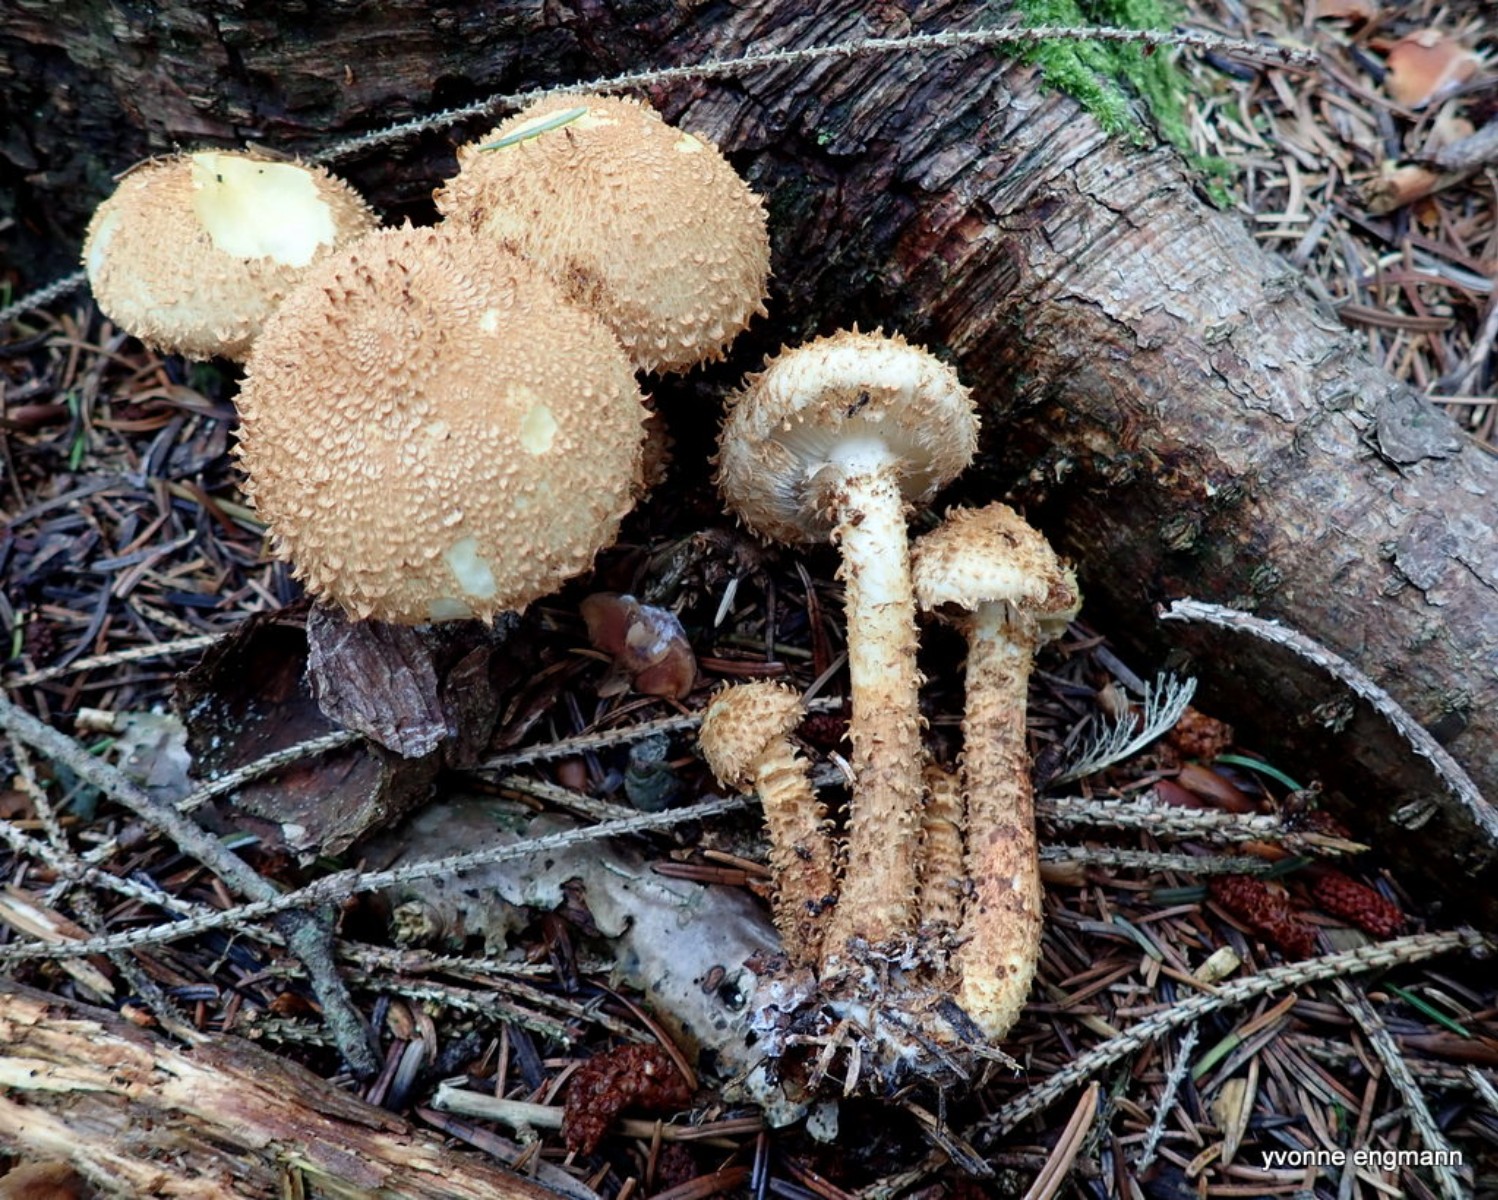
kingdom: Fungi
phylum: Basidiomycota
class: Agaricomycetes
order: Agaricales
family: Strophariaceae
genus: Pholiota
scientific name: Pholiota squarrosa
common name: krumskællet skælhat
